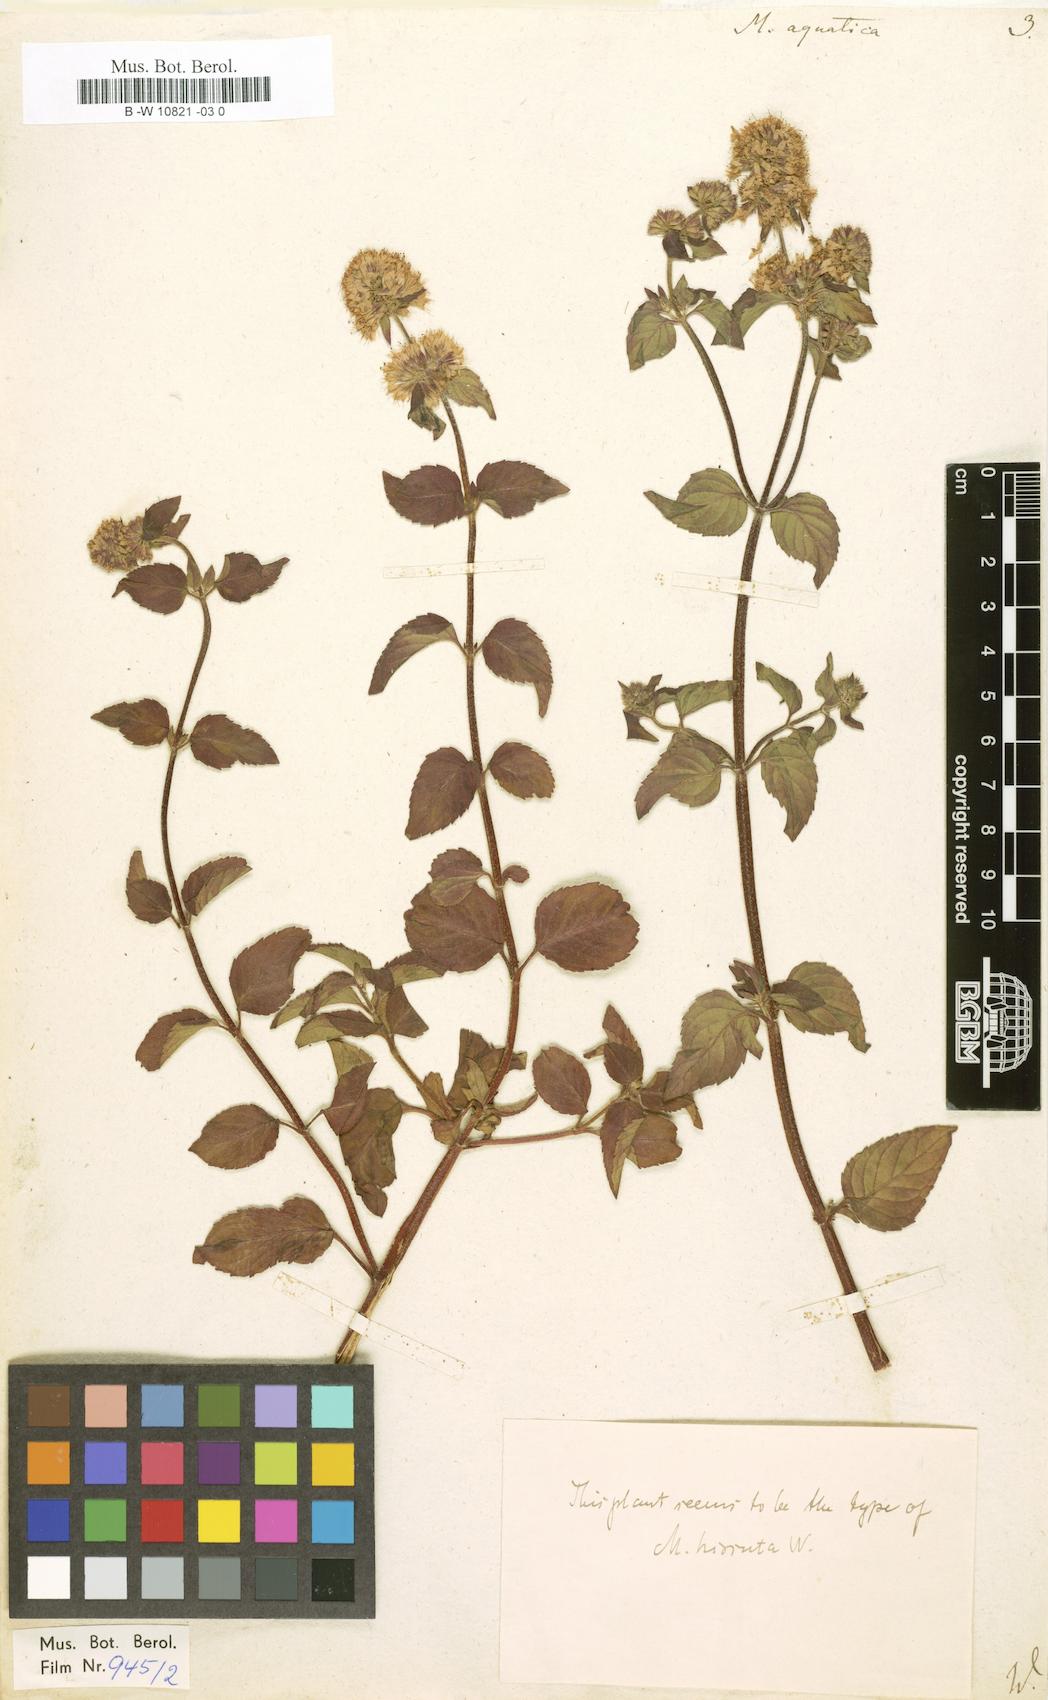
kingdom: Plantae
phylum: Tracheophyta
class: Magnoliopsida
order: Lamiales
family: Lamiaceae
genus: Mentha
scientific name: Mentha aquatica
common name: Water mint
